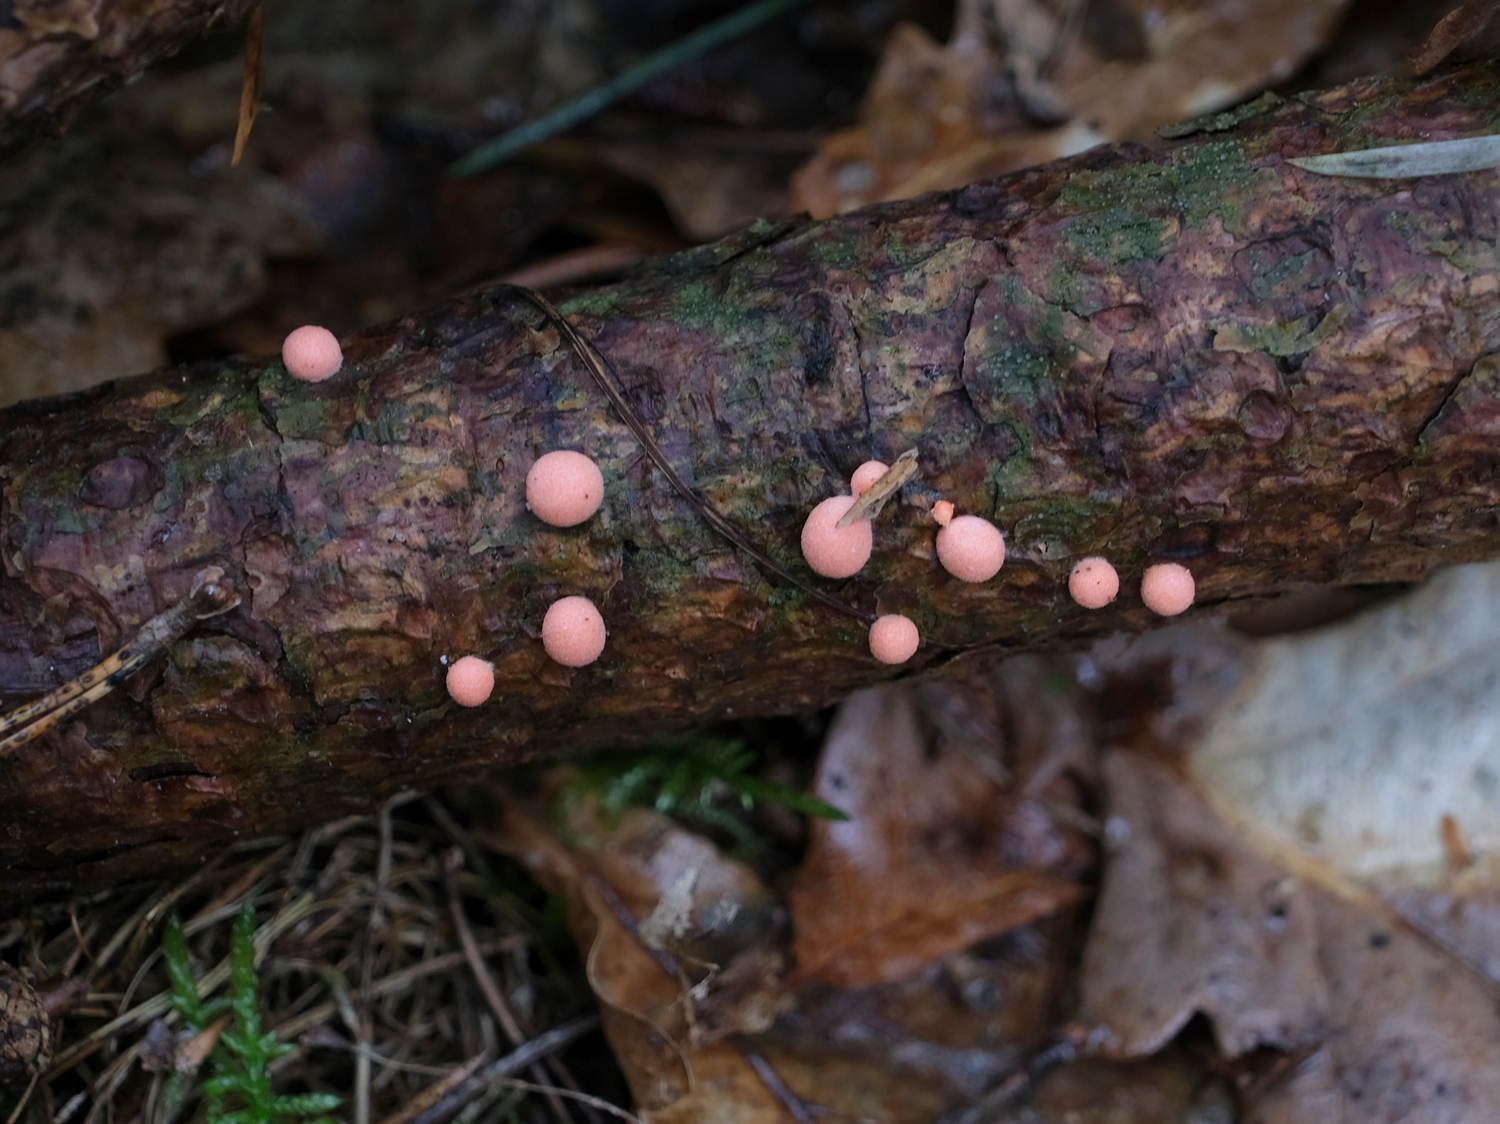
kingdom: Protozoa
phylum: Mycetozoa
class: Myxomycetes
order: Cribrariales
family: Tubiferaceae
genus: Lycogala
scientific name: Lycogala epidendrum
